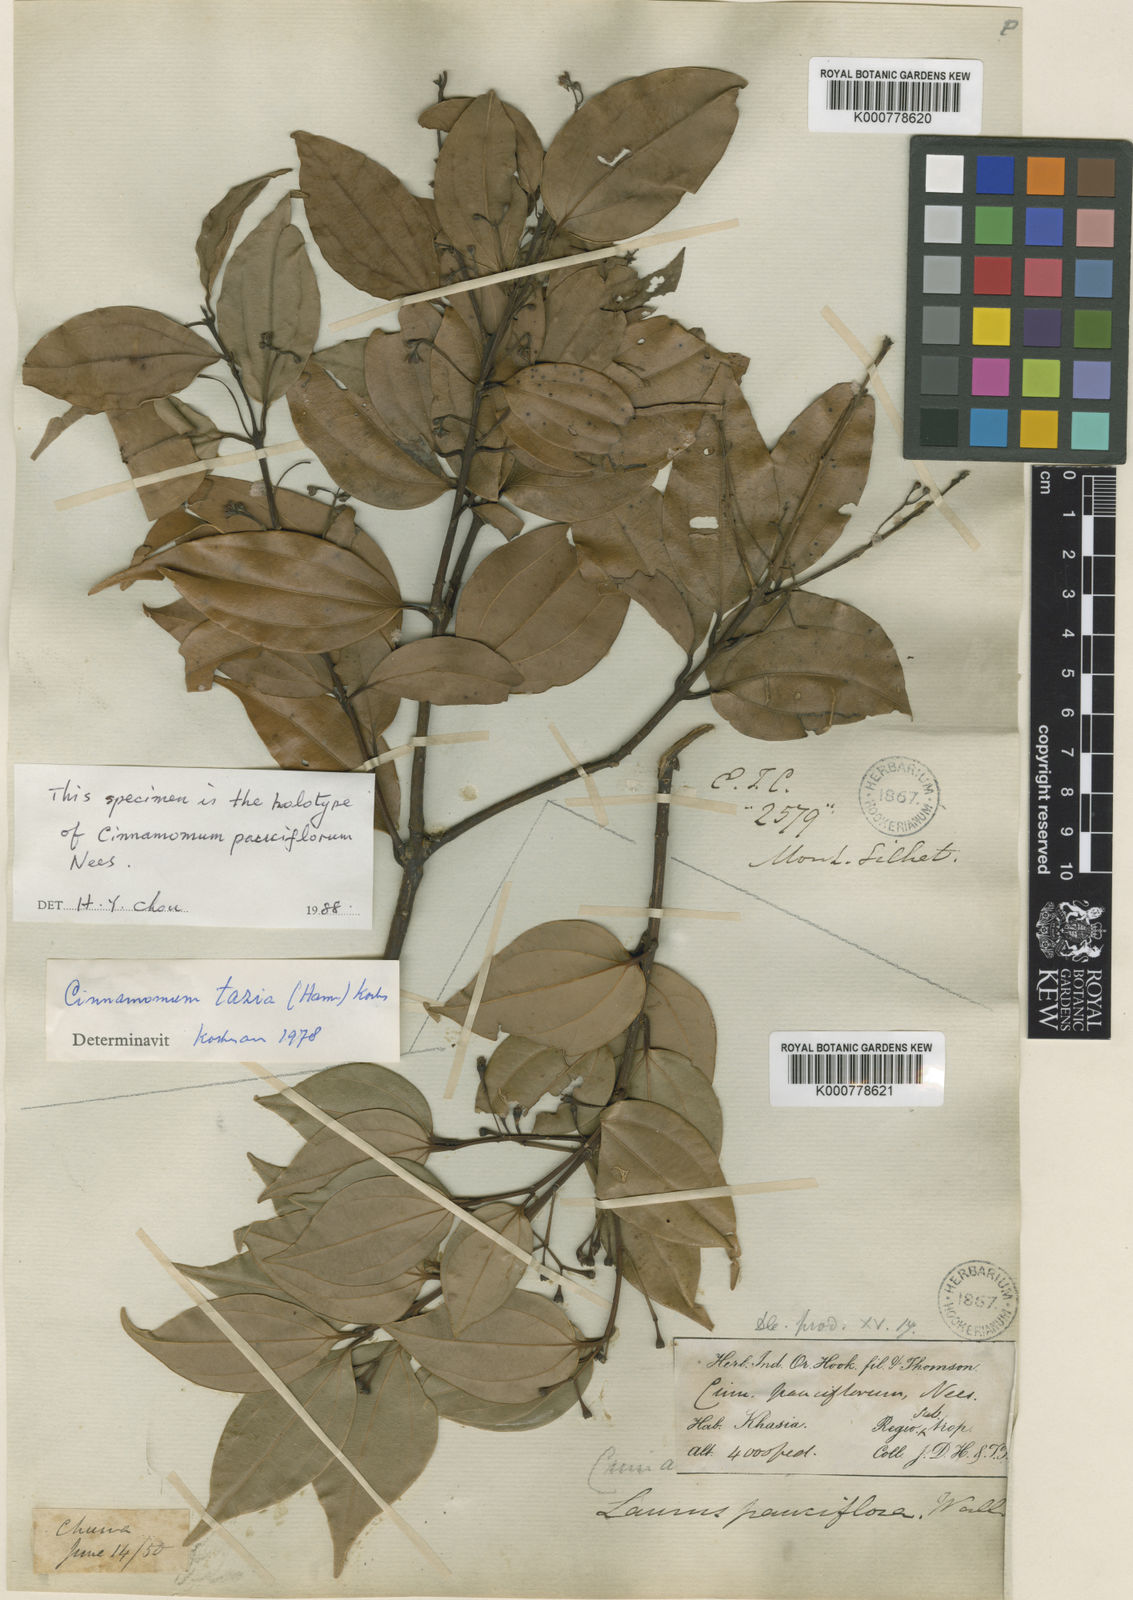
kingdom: Plantae
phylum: Tracheophyta
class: Magnoliopsida
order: Laurales
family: Lauraceae
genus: Cinnamomum
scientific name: Cinnamomum
